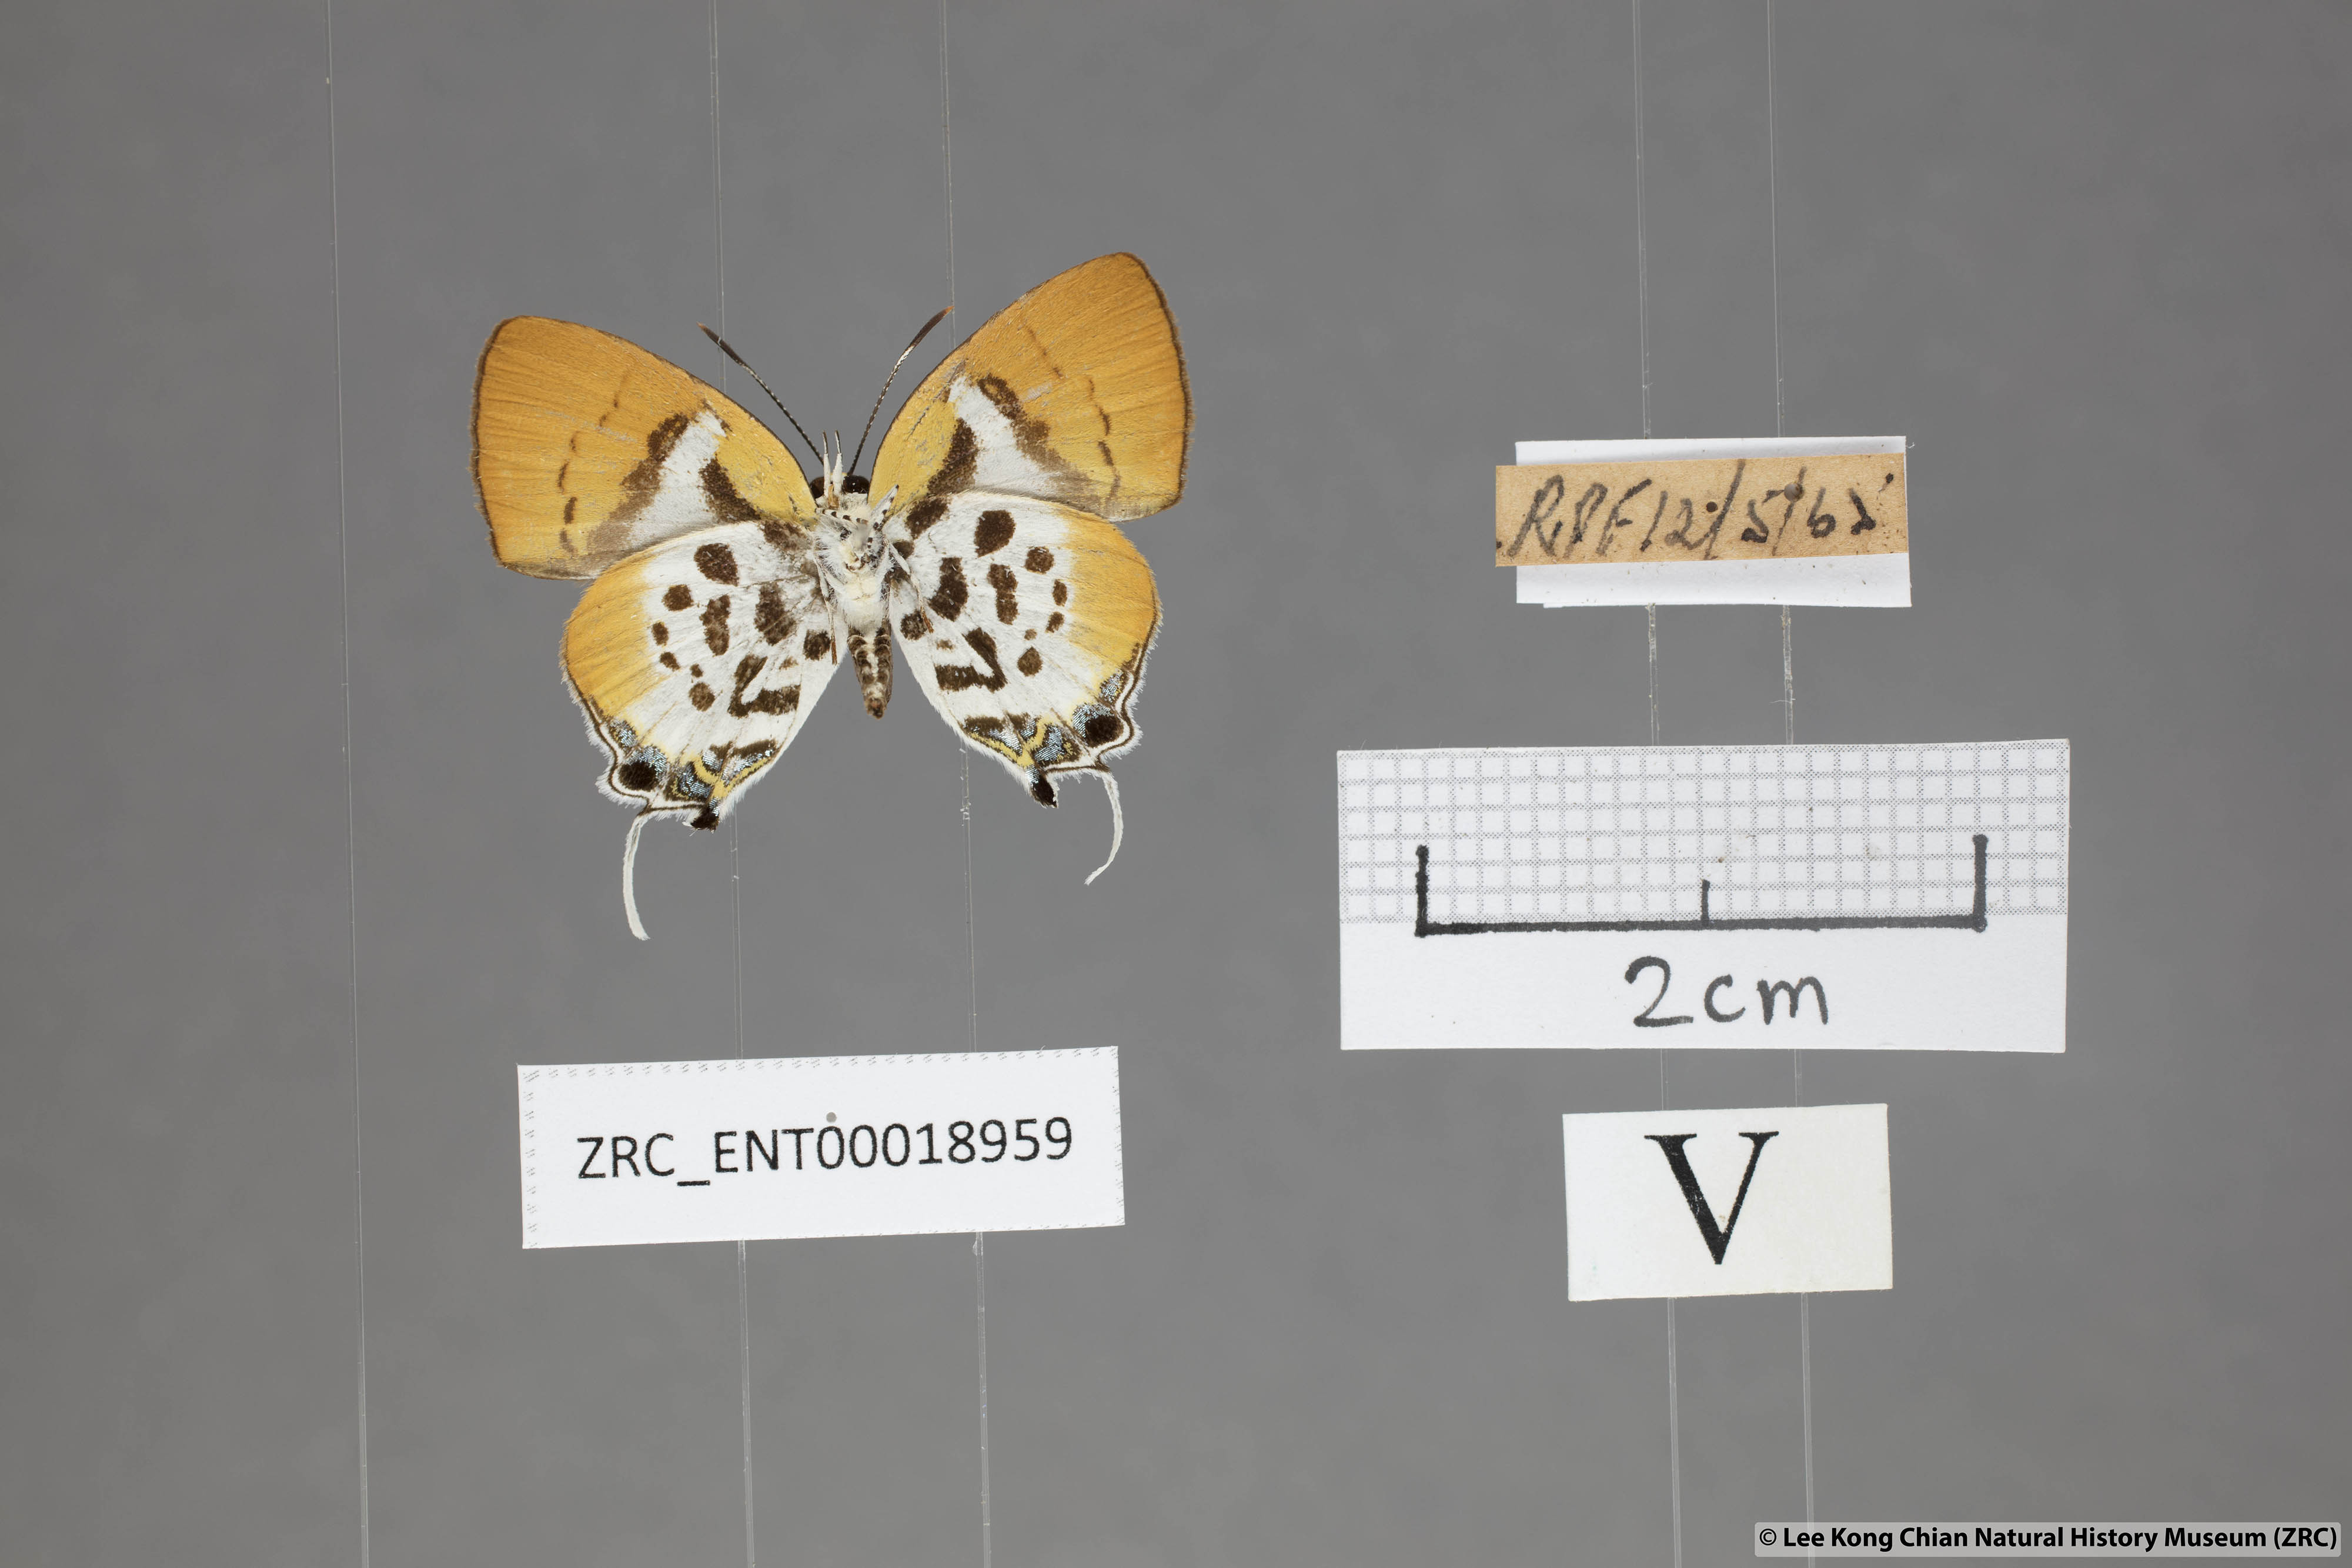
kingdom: Animalia
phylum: Arthropoda
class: Insecta
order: Lepidoptera
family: Lycaenidae
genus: Araotes
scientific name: Araotes lapithis
